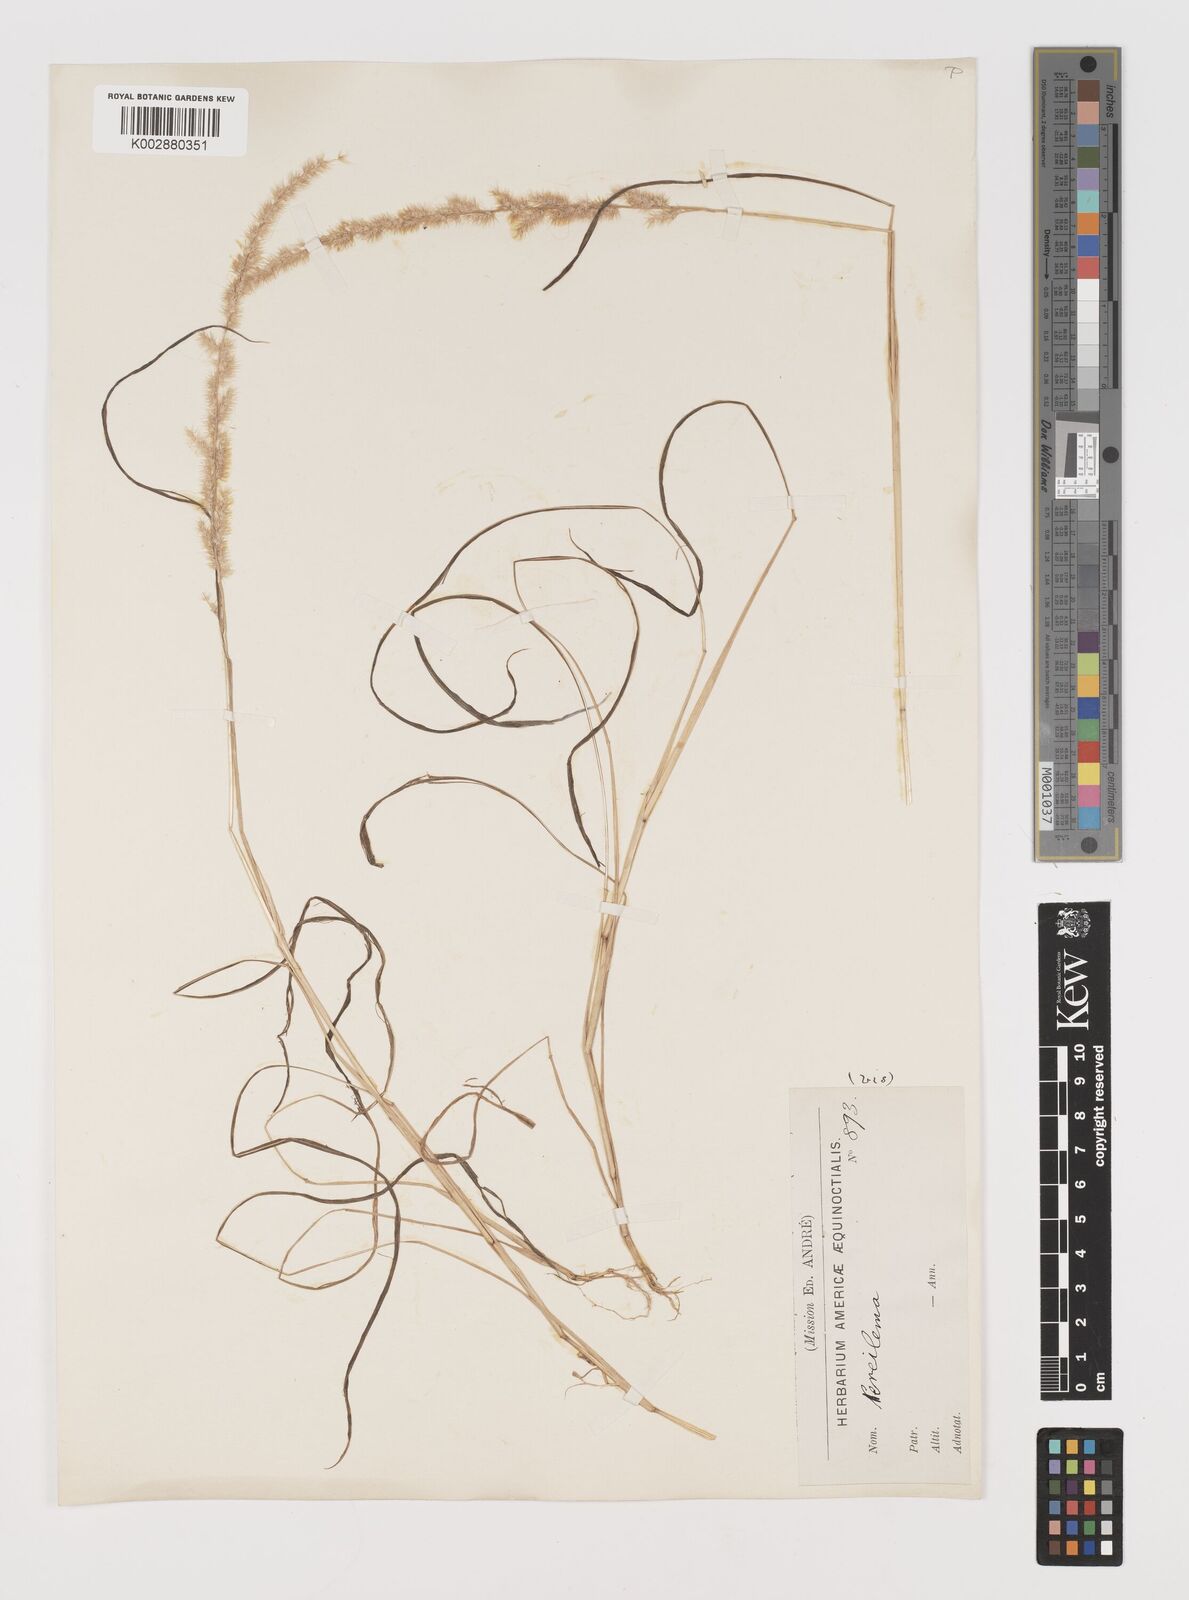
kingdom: Plantae
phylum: Tracheophyta
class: Liliopsida
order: Poales
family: Poaceae
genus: Muhlenbergia
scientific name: Muhlenbergia pereilema
